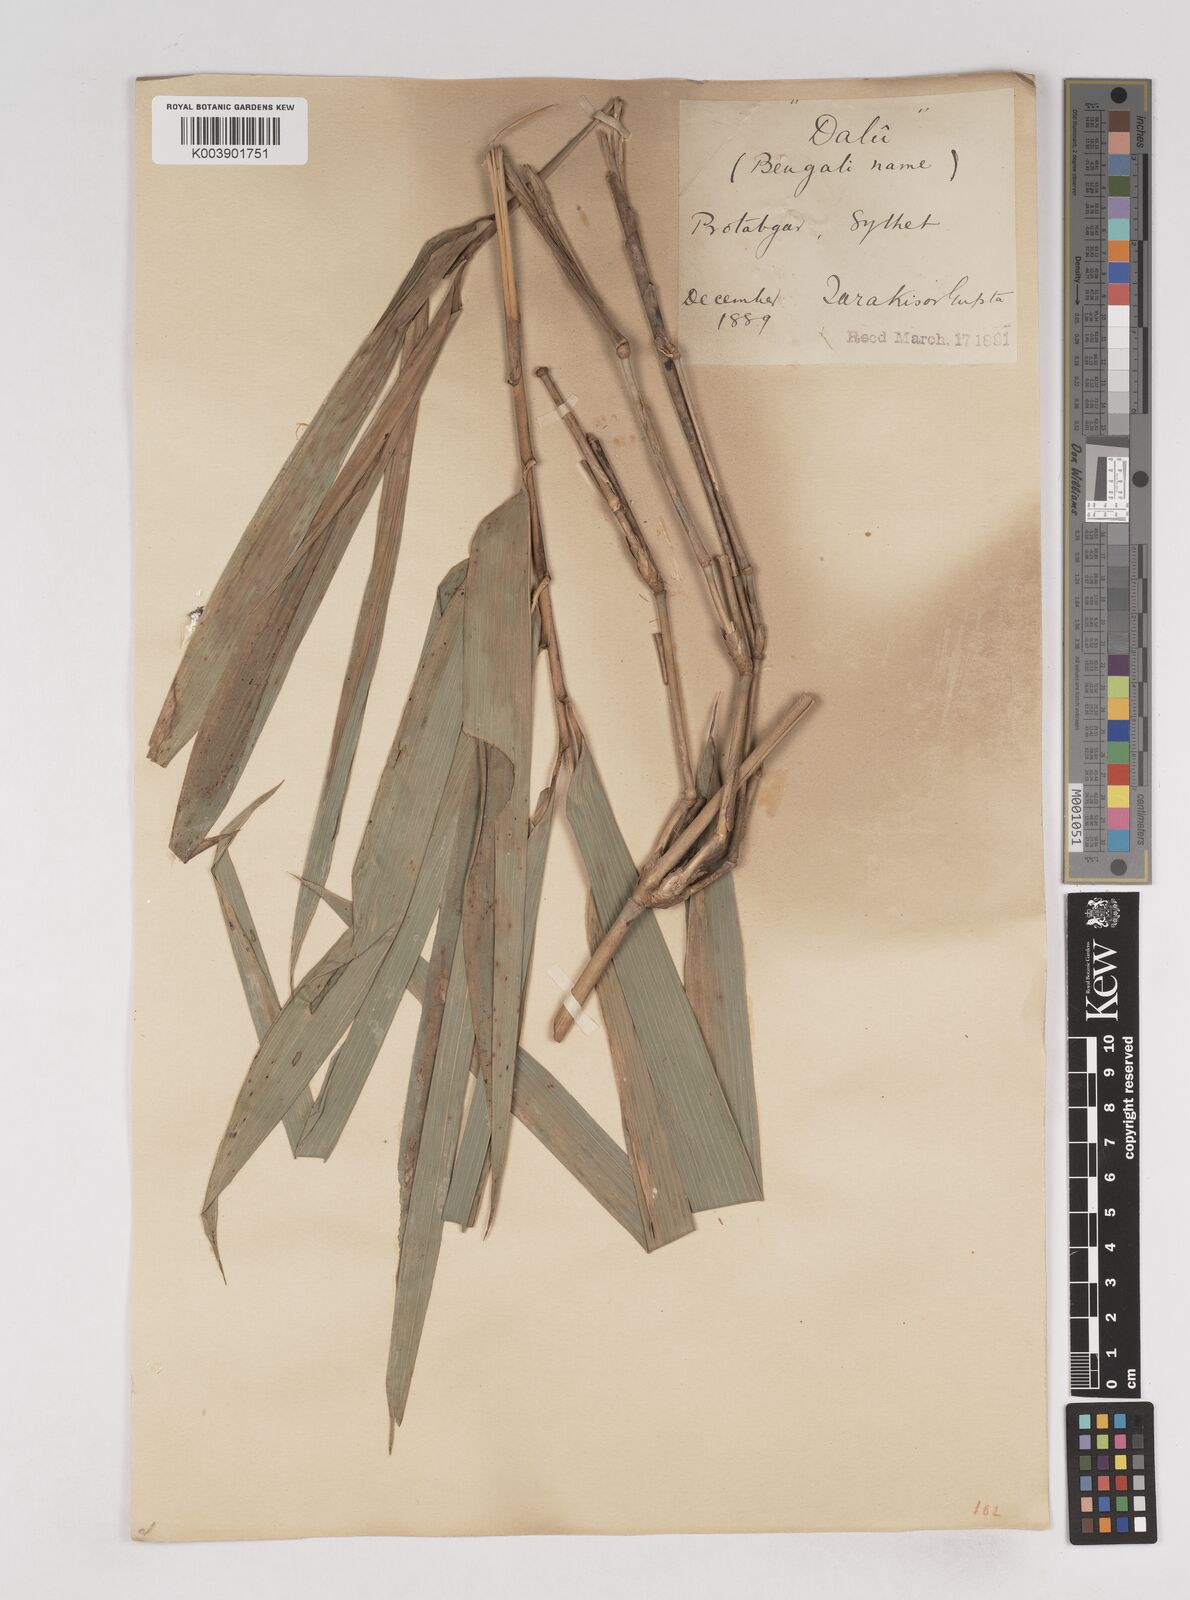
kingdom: Plantae
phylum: Tracheophyta
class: Liliopsida
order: Poales
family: Poaceae
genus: Schizostachyum
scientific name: Schizostachyum dullooa
